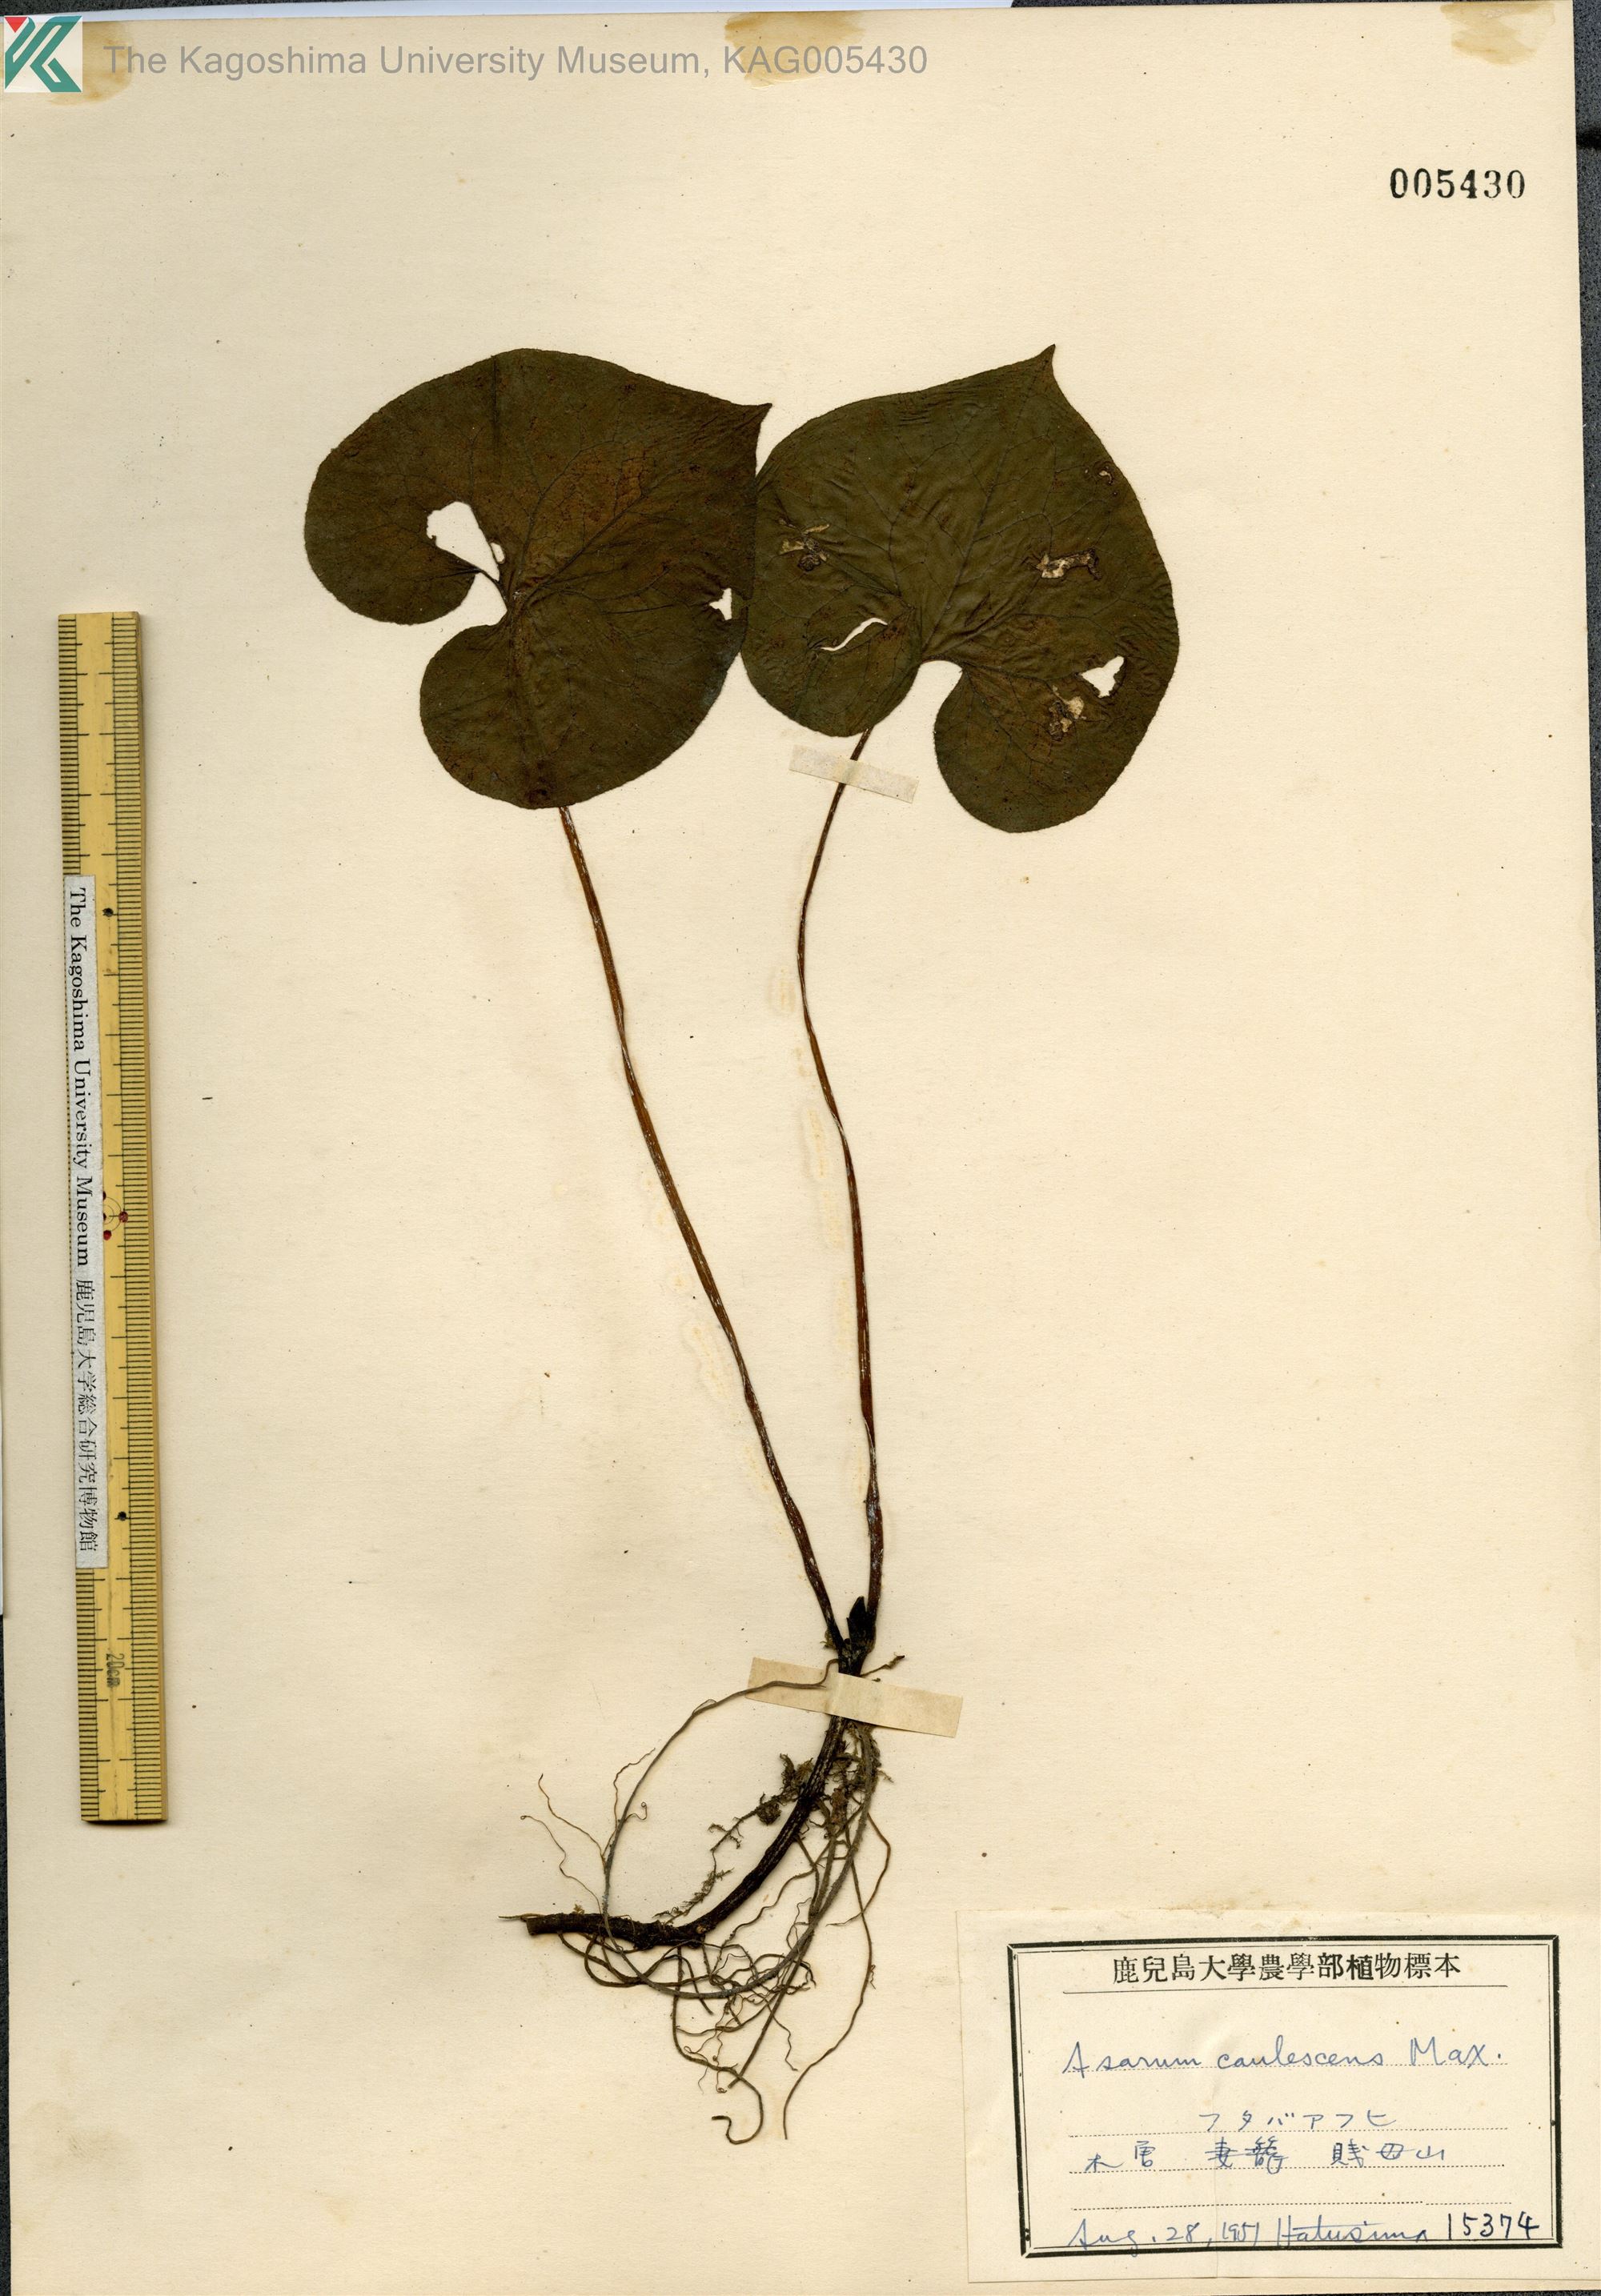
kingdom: Plantae
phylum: Tracheophyta
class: Magnoliopsida
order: Piperales
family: Aristolochiaceae
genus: Asarum
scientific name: Asarum caulescens
